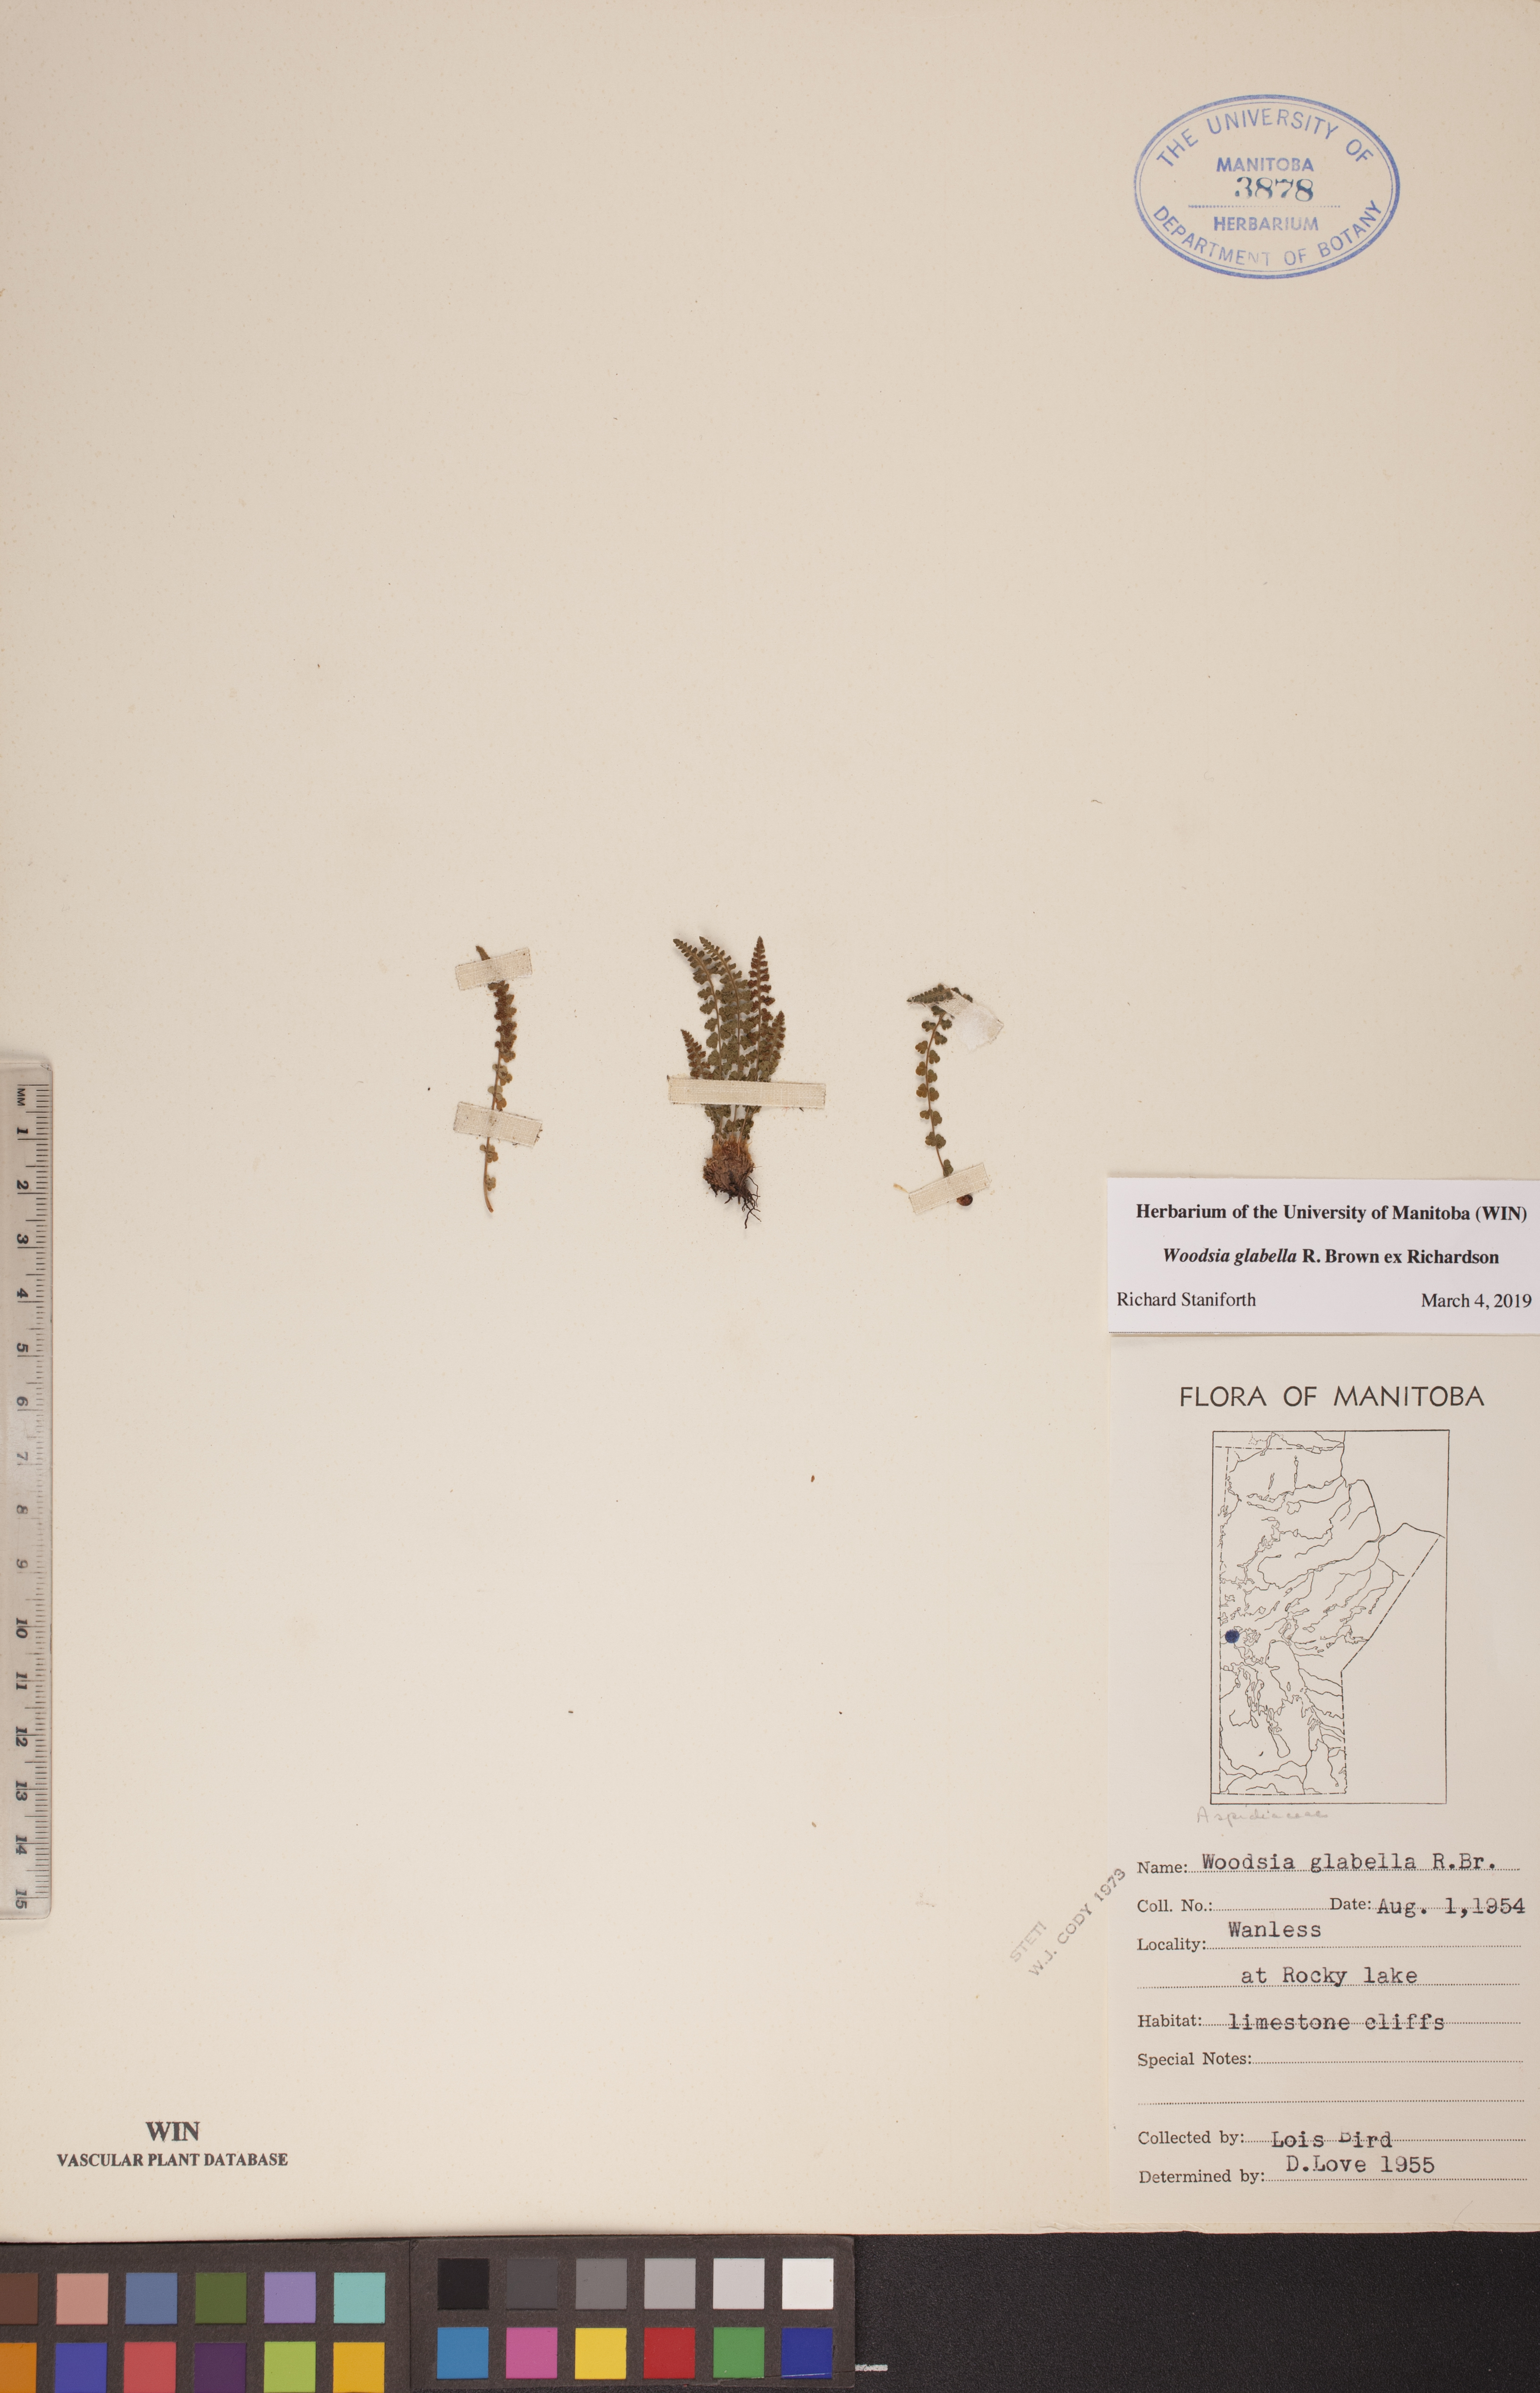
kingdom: Plantae
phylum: Tracheophyta
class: Polypodiopsida
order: Polypodiales
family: Woodsiaceae
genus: Woodsia
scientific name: Woodsia glabella
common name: Smooth woodsia
